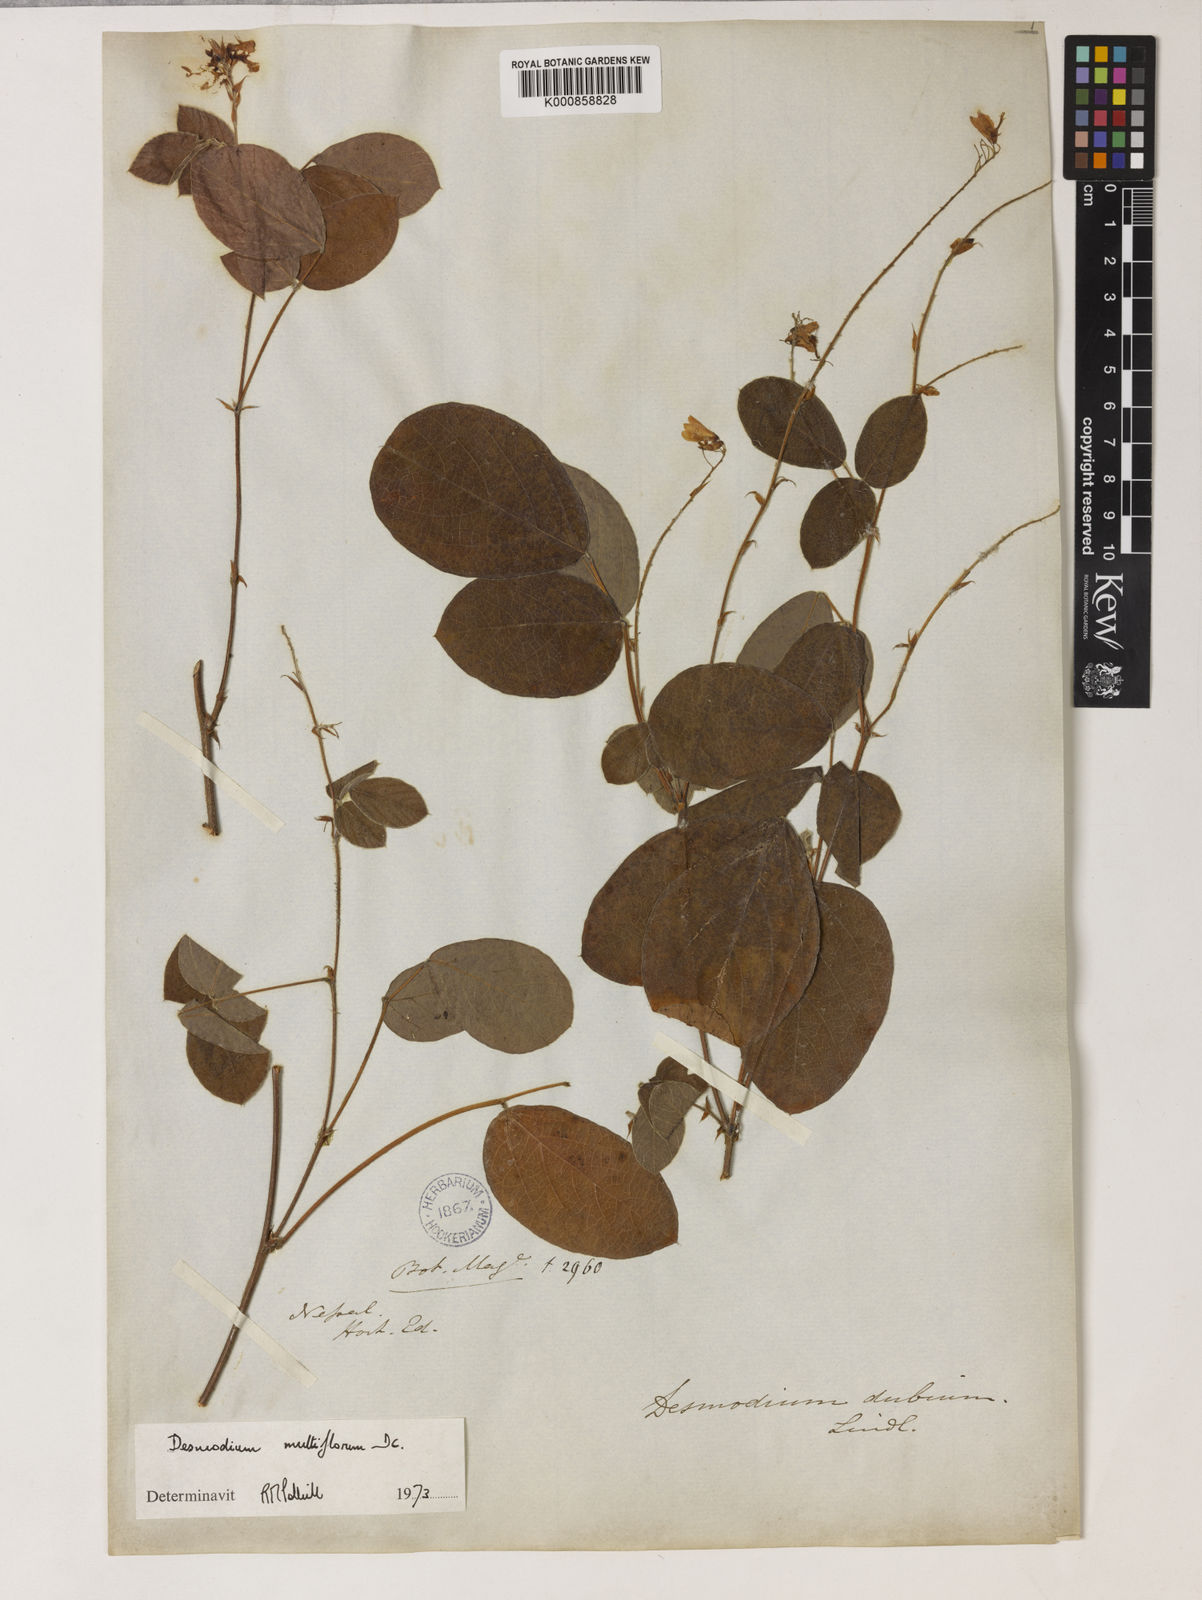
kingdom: Plantae
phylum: Tracheophyta
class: Magnoliopsida
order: Fabales
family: Fabaceae
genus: Ototropis
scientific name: Ototropis multiflora
